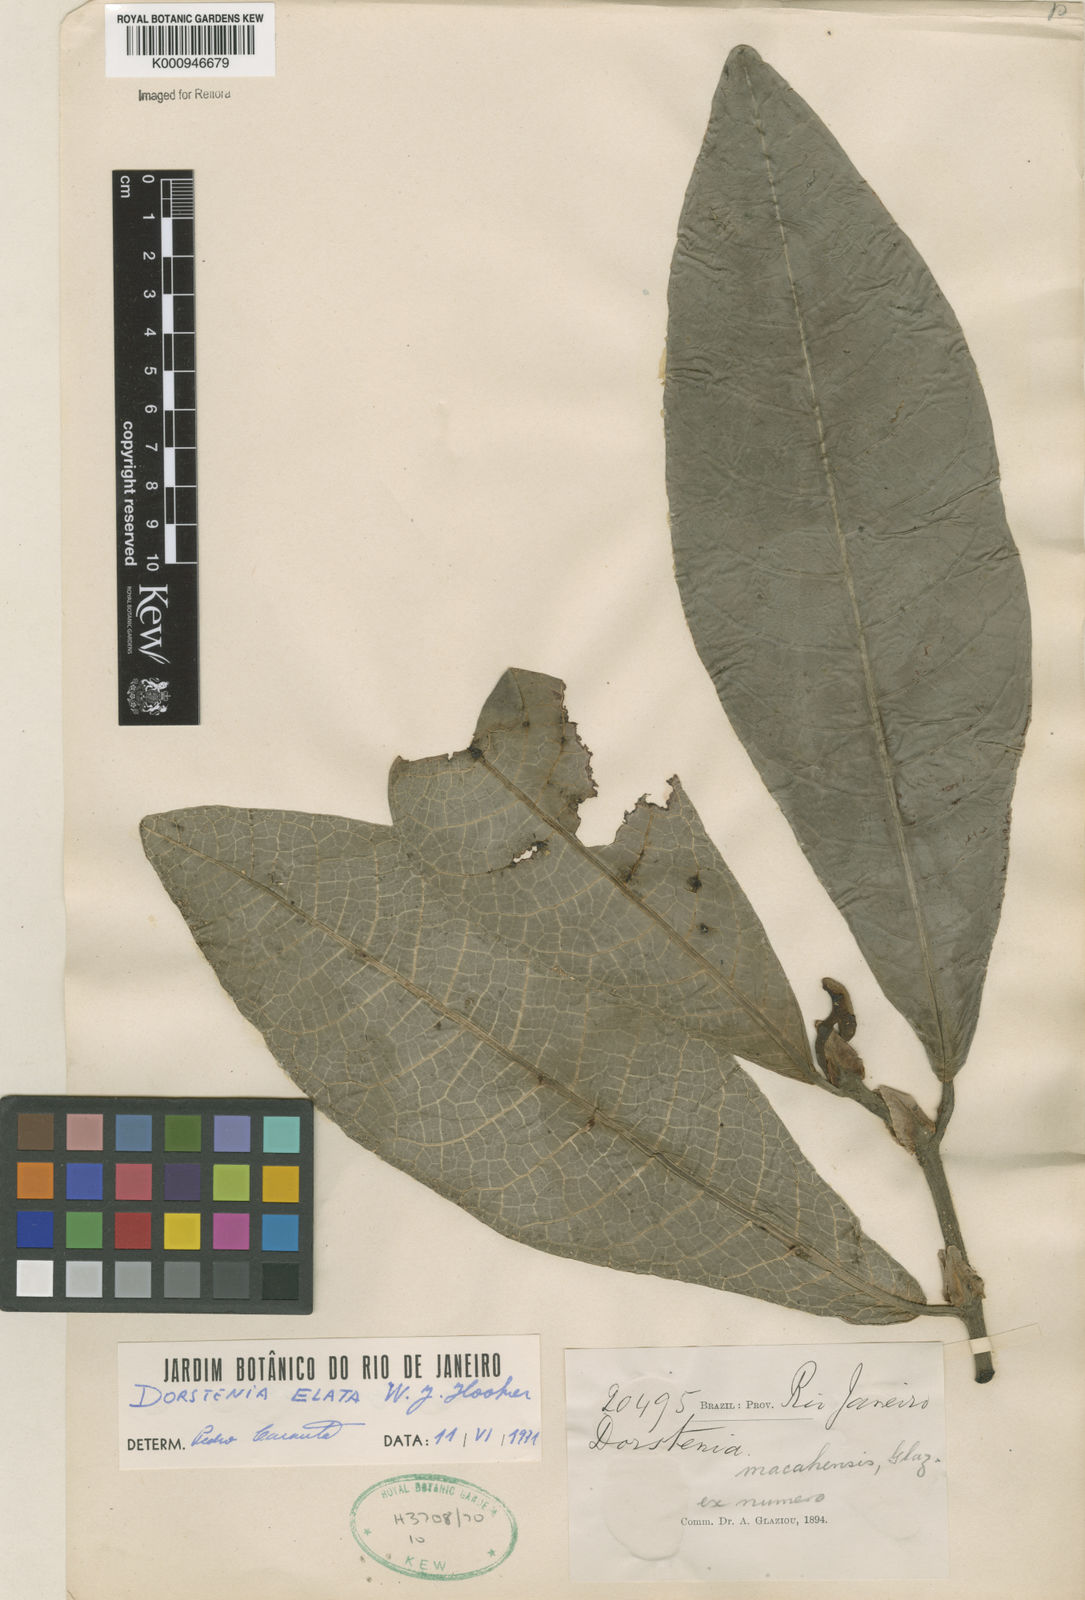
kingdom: Plantae
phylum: Tracheophyta
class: Magnoliopsida
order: Rosales
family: Moraceae
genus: Dorstenia
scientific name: Dorstenia
